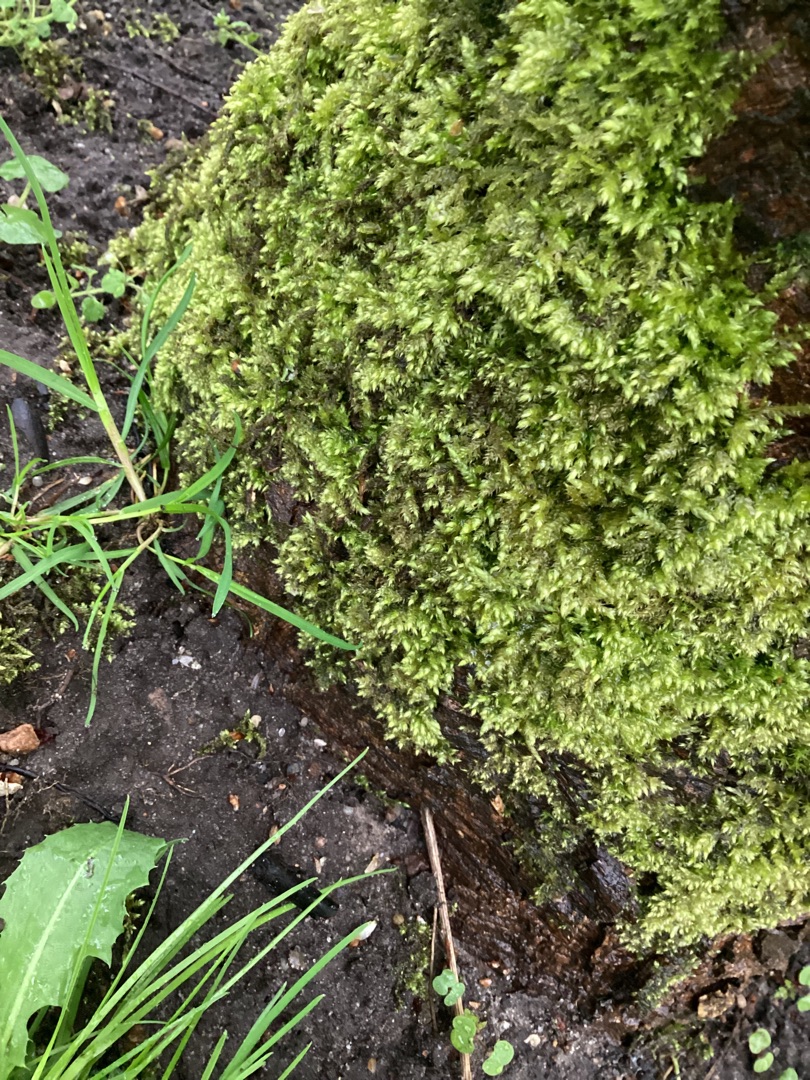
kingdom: Plantae
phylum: Bryophyta
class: Bryopsida
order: Hypnales
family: Brachytheciaceae
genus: Brachythecium
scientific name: Brachythecium rutabulum
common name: Almindelig kortkapsel
